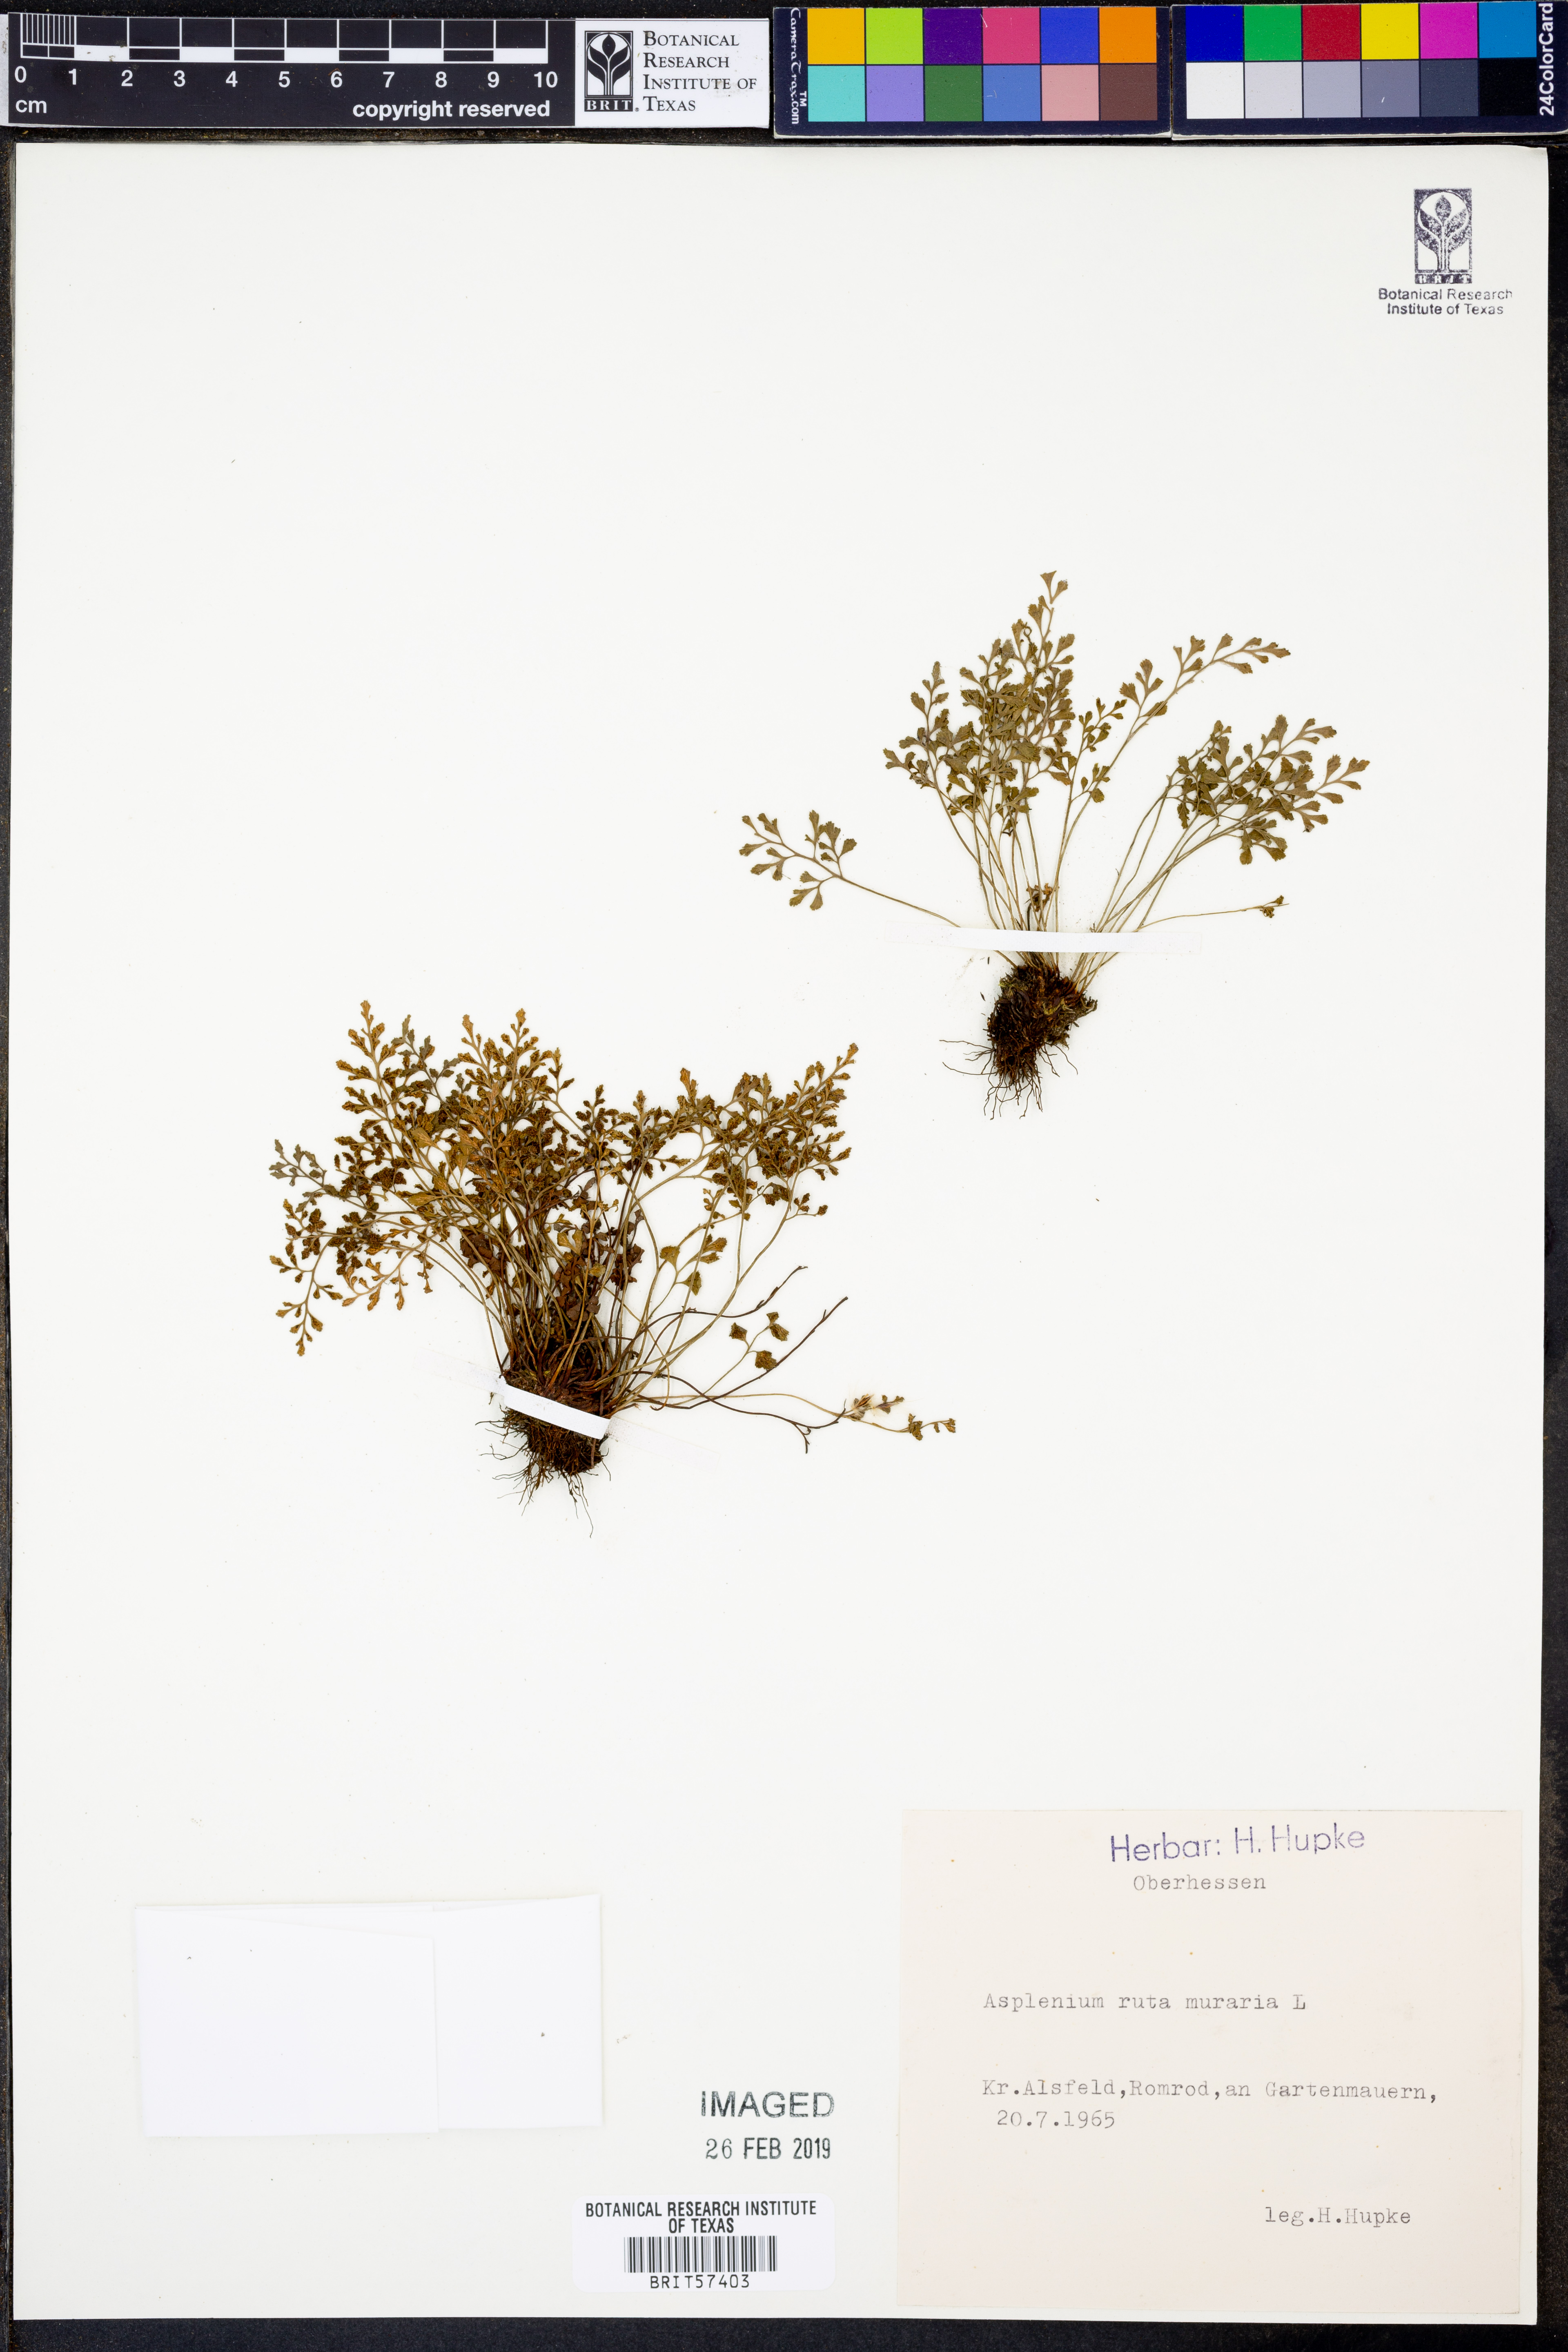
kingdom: Plantae
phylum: Tracheophyta
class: Polypodiopsida
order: Polypodiales
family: Aspleniaceae
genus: Asplenium
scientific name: Asplenium ruta-muraria
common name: Wall-rue
